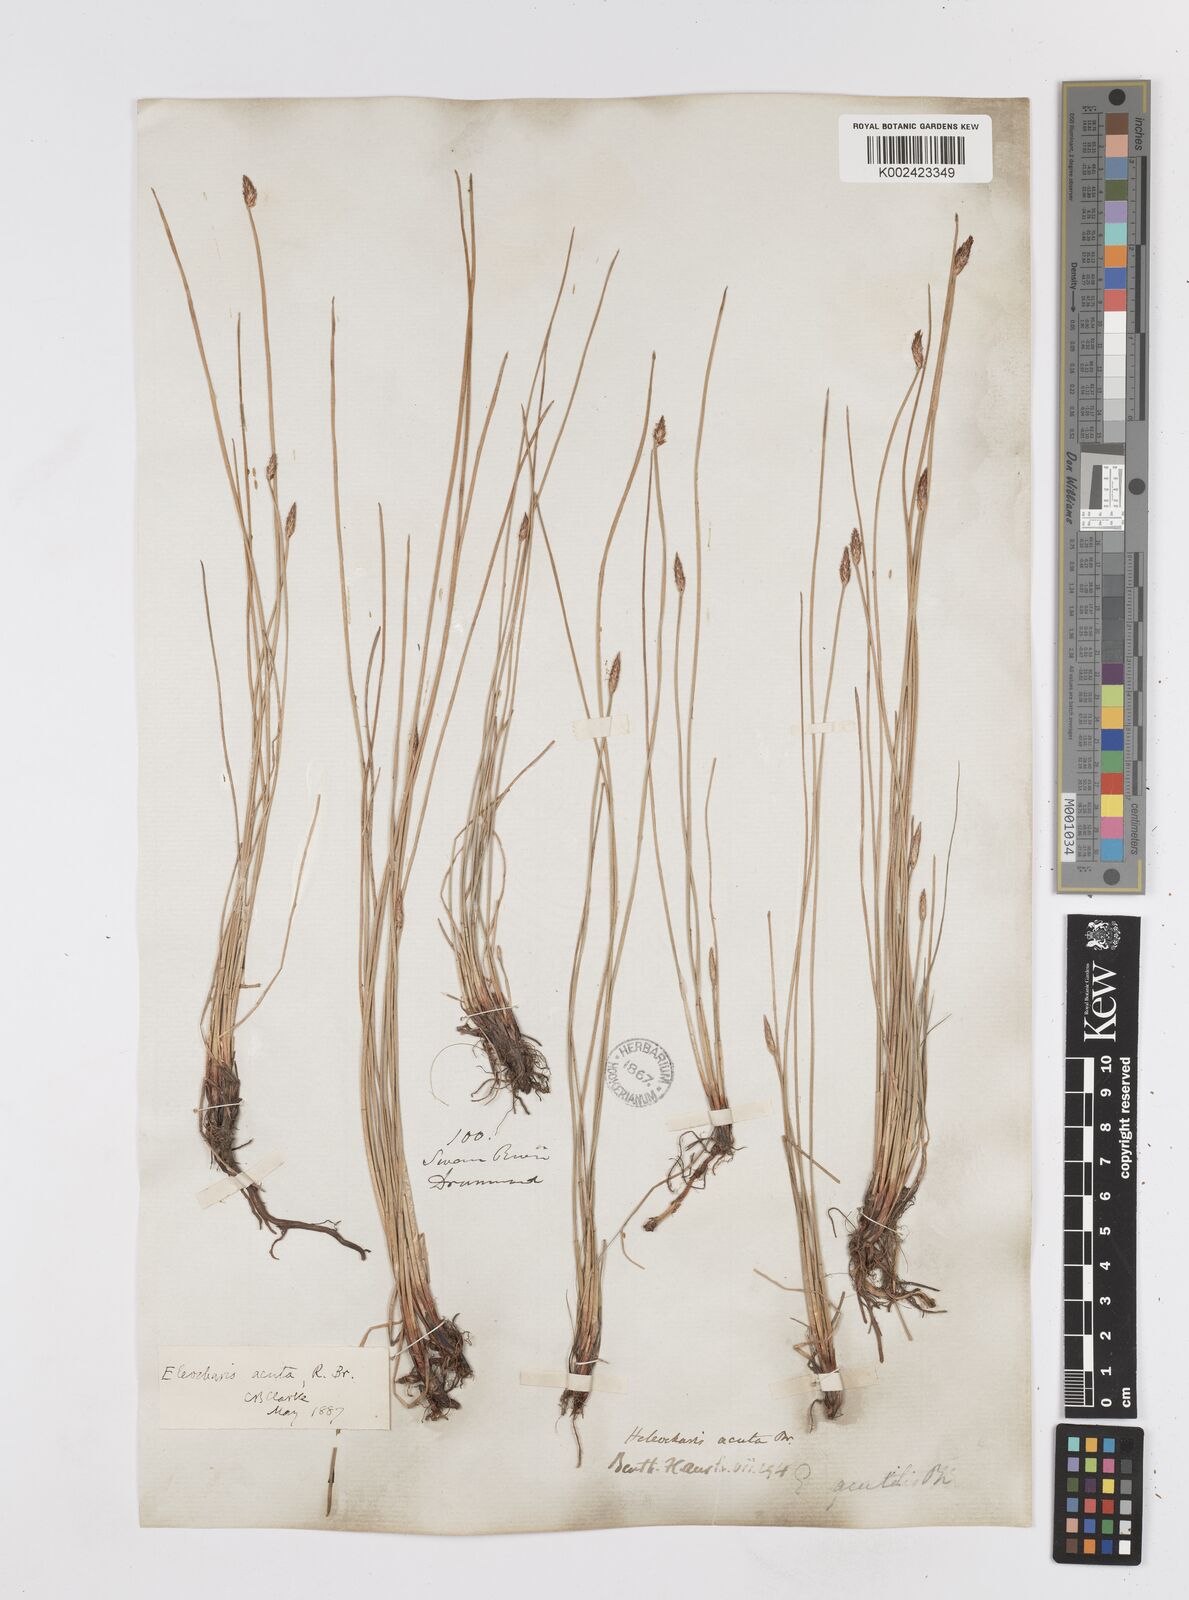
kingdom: Plantae
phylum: Tracheophyta
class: Liliopsida
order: Poales
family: Cyperaceae
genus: Eleocharis
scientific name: Eleocharis acuta
